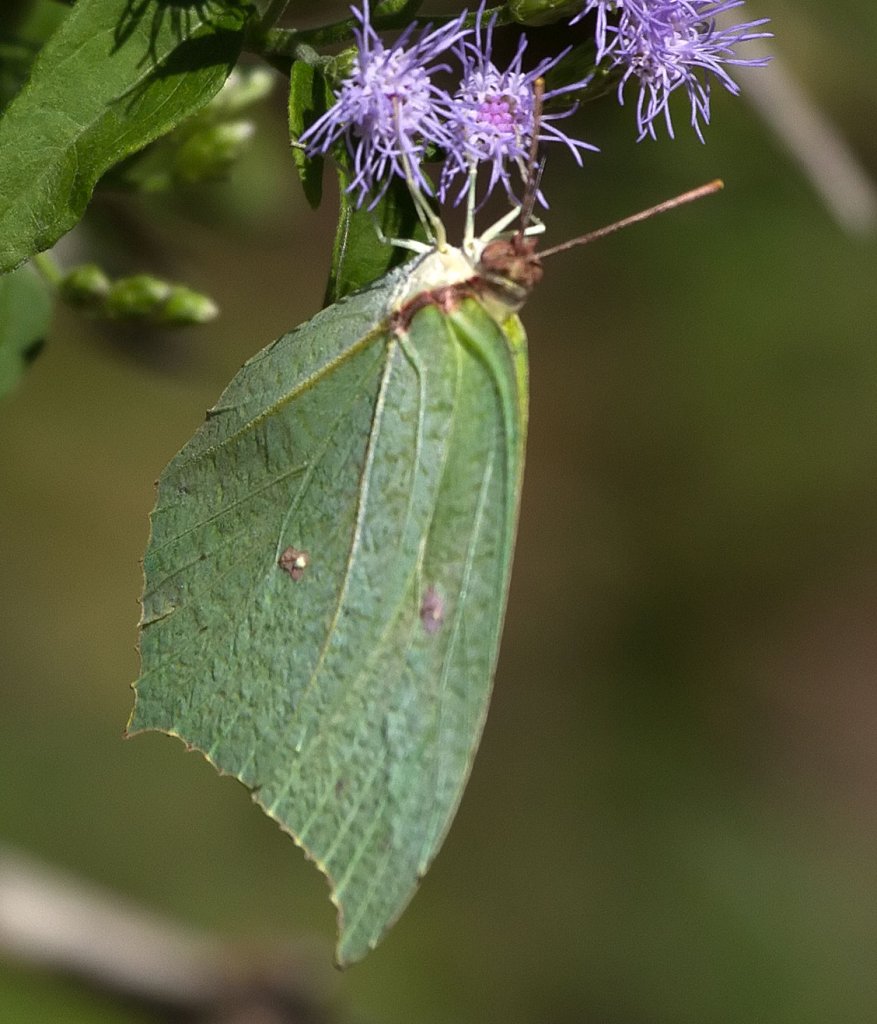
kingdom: Animalia
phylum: Arthropoda
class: Insecta
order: Lepidoptera
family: Pieridae
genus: Anteos
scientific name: Anteos maerula
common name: Yellow Angled-Sulphur
